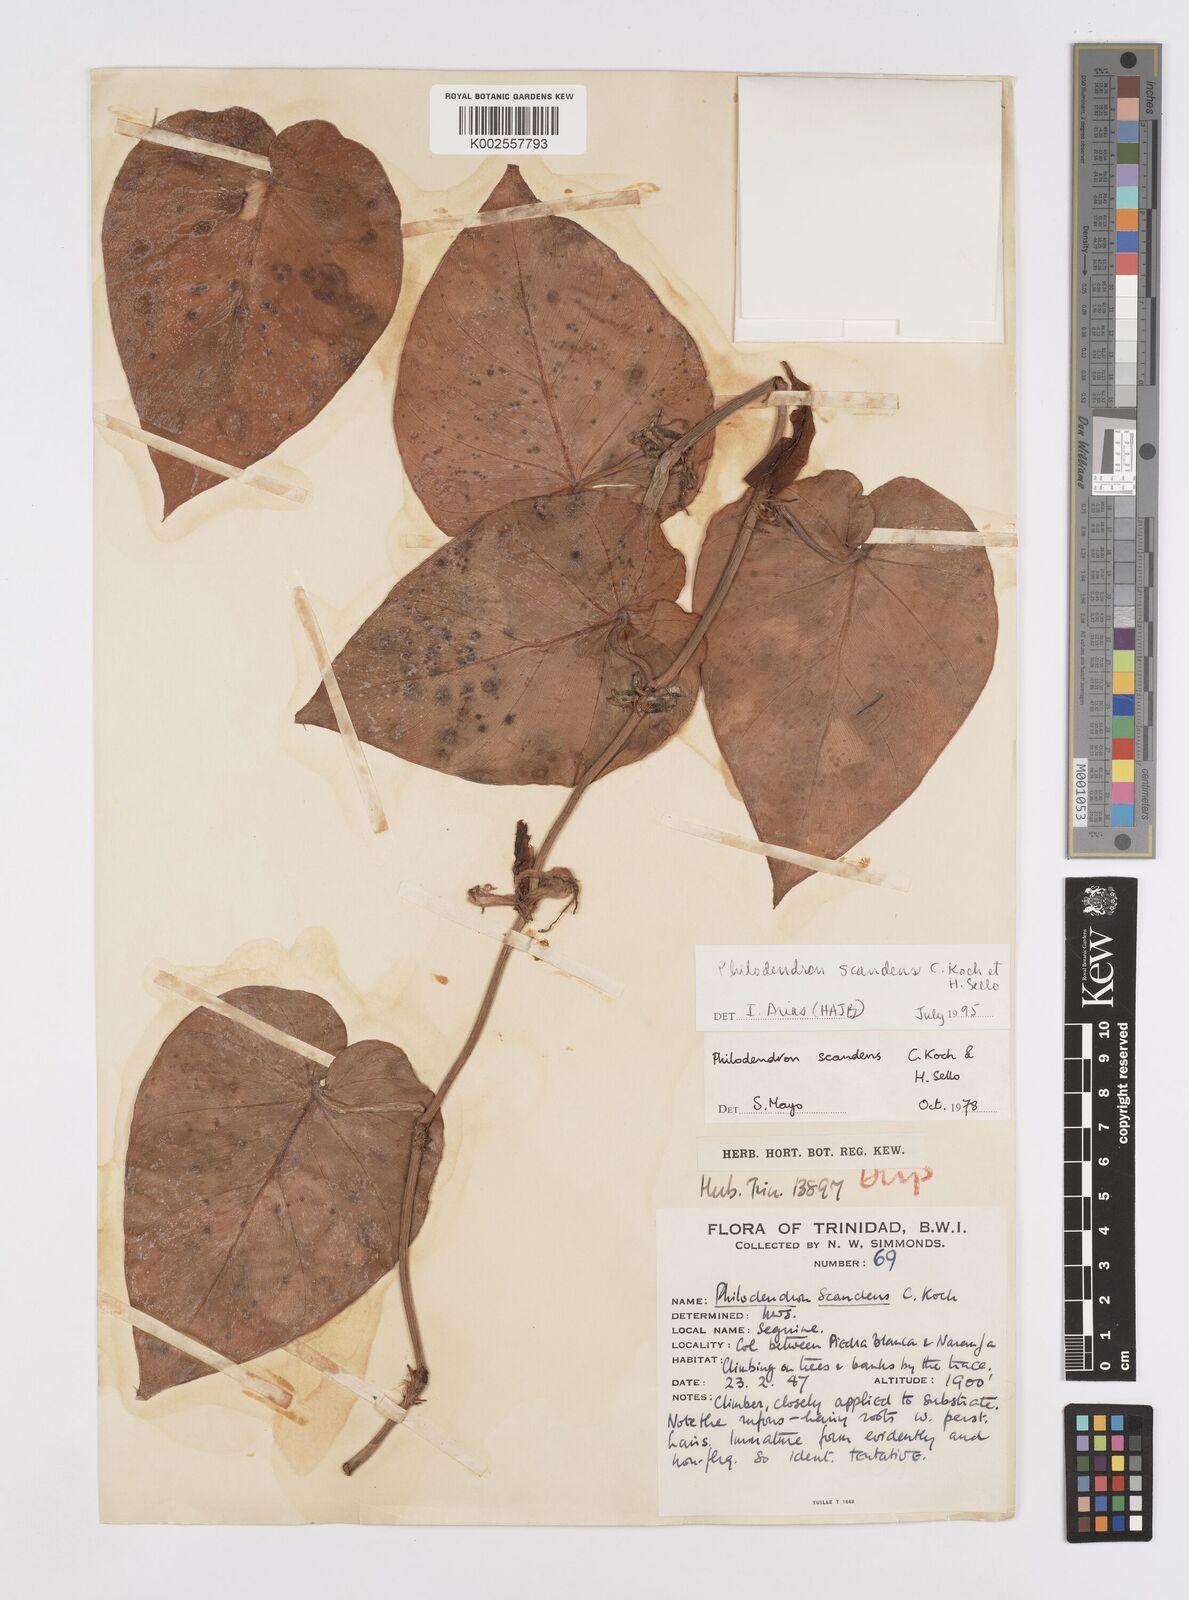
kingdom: Plantae
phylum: Tracheophyta
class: Liliopsida
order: Alismatales
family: Araceae
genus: Philodendron
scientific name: Philodendron hederaceum
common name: Vilevine
